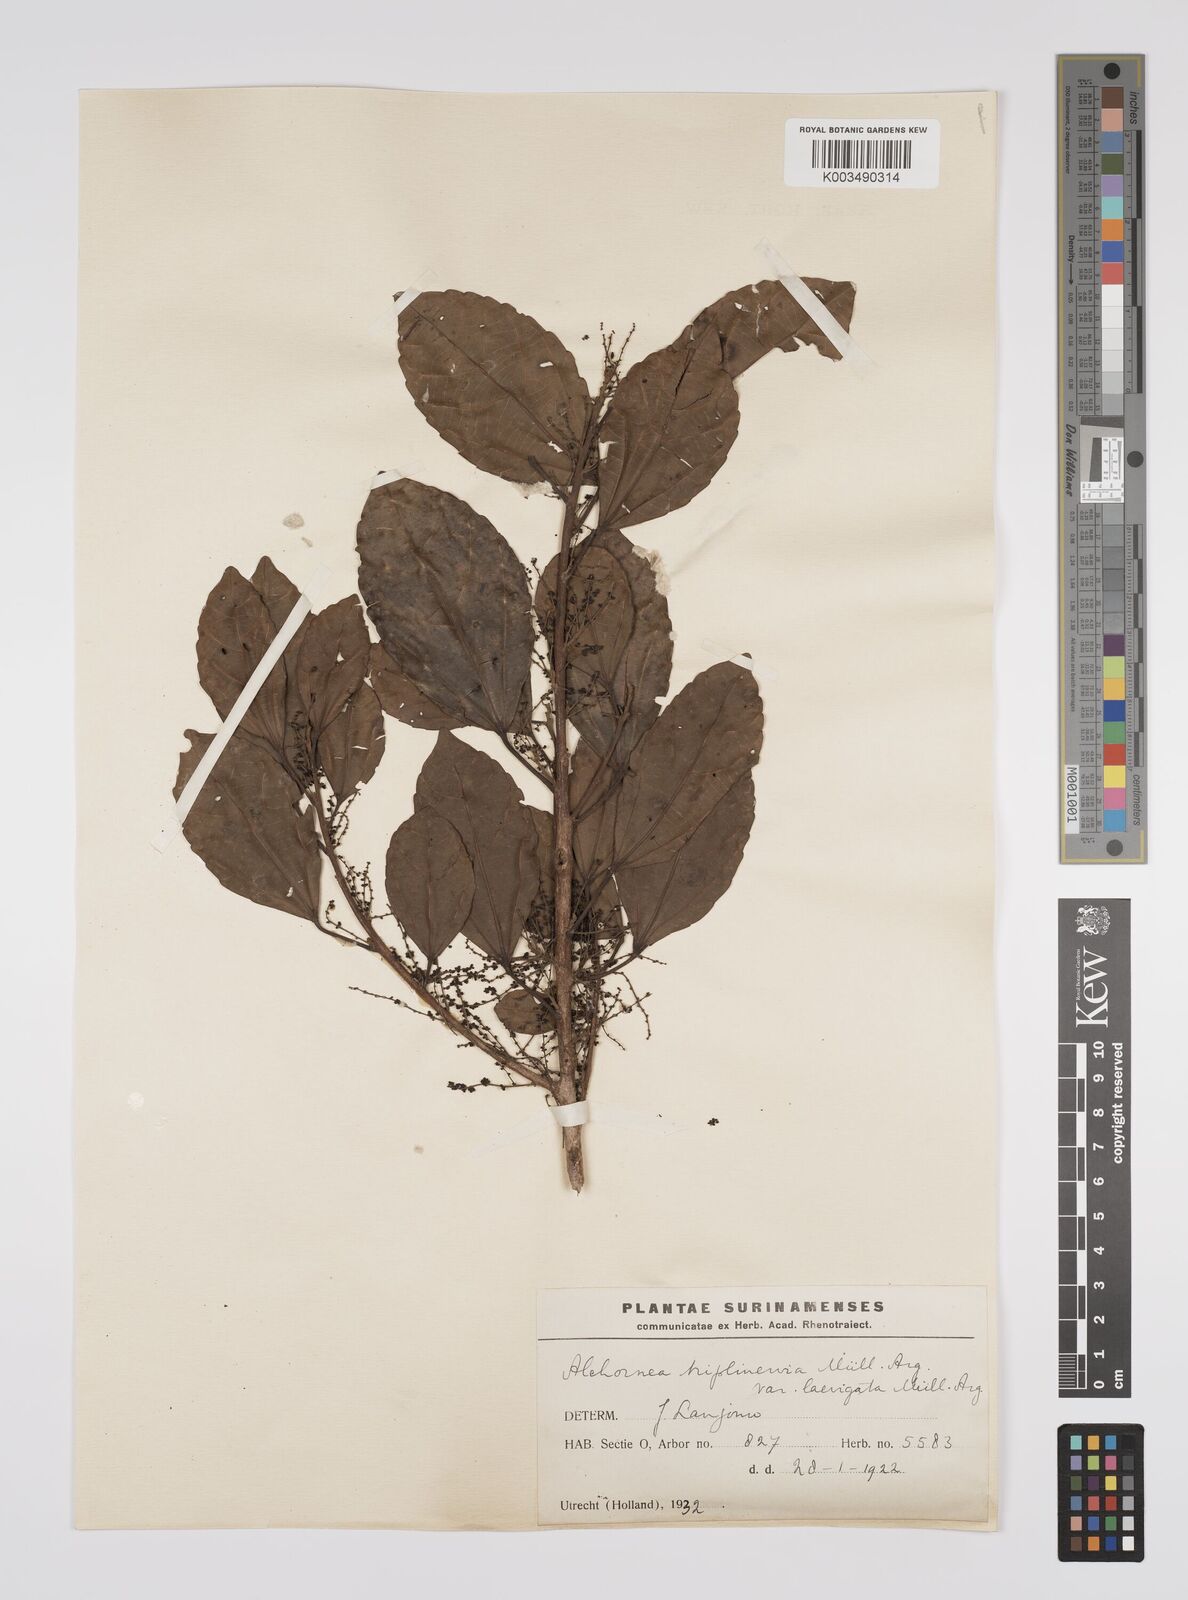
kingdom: Plantae
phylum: Tracheophyta
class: Magnoliopsida
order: Malpighiales
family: Euphorbiaceae
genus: Alchornea
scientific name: Alchornea triplinervia
